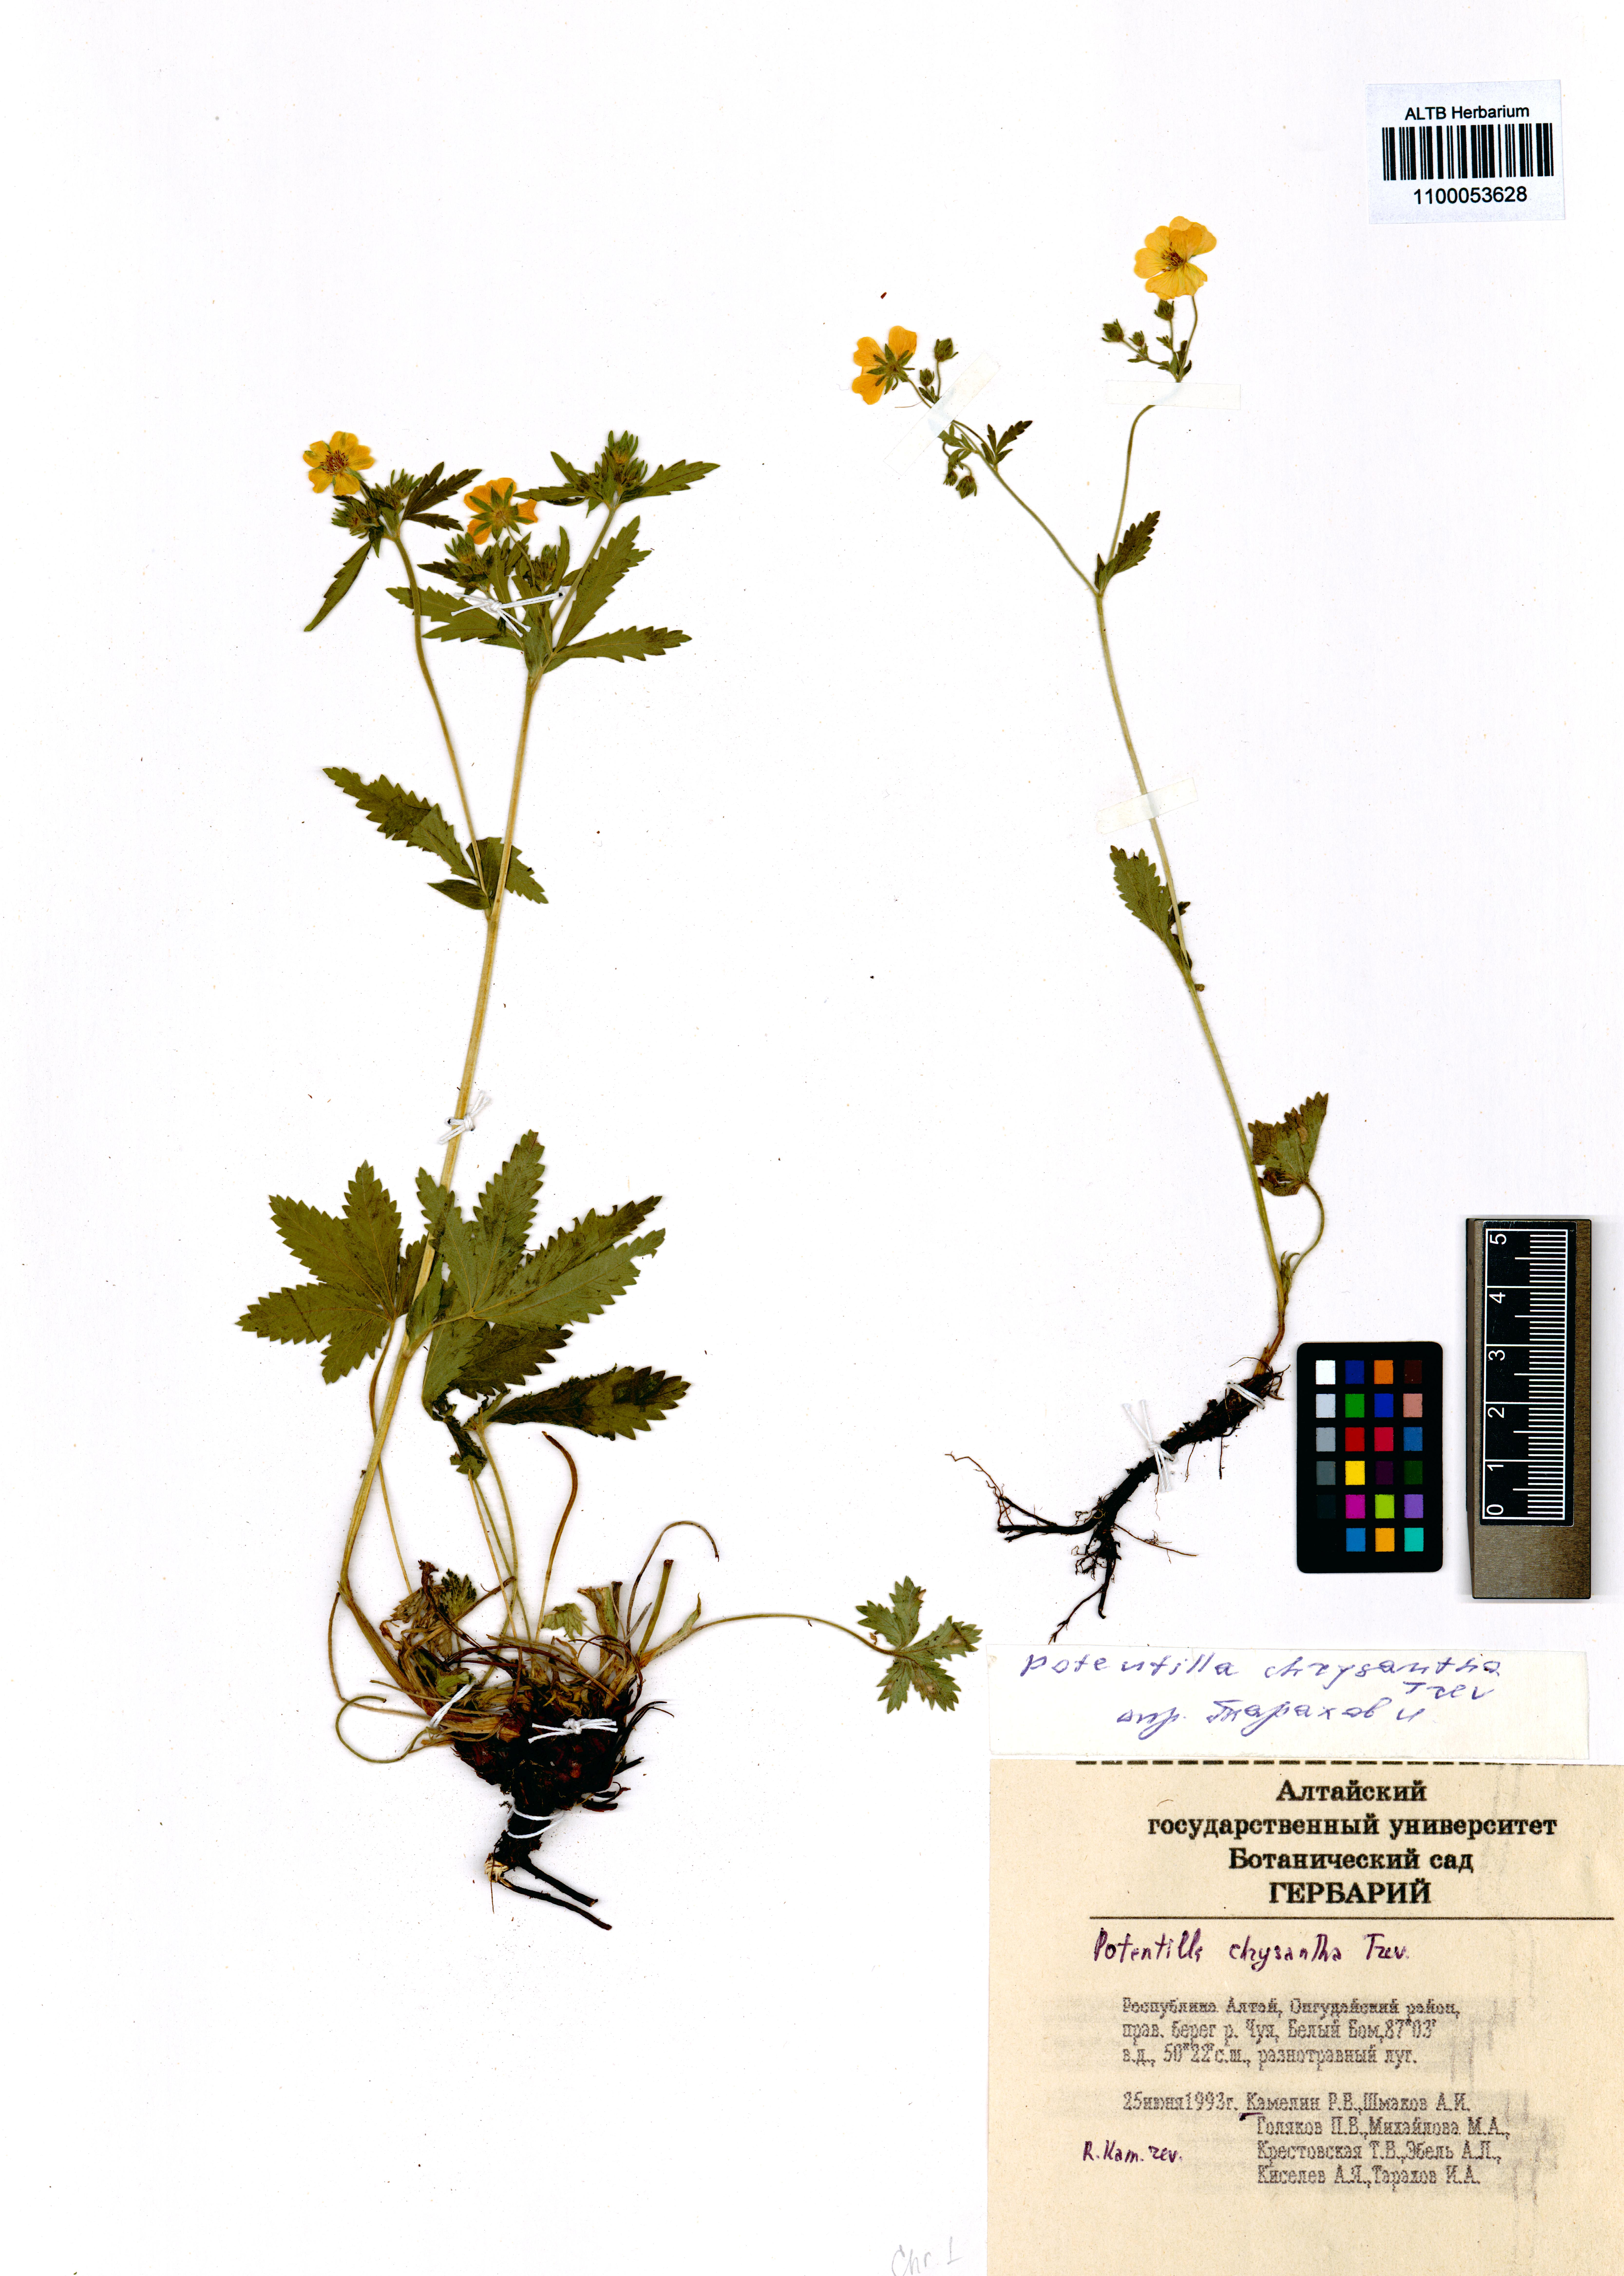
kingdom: Plantae
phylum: Tracheophyta
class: Magnoliopsida
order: Rosales
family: Rosaceae
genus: Potentilla
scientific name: Potentilla chrysantha
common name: Thuringian cinquefoil
